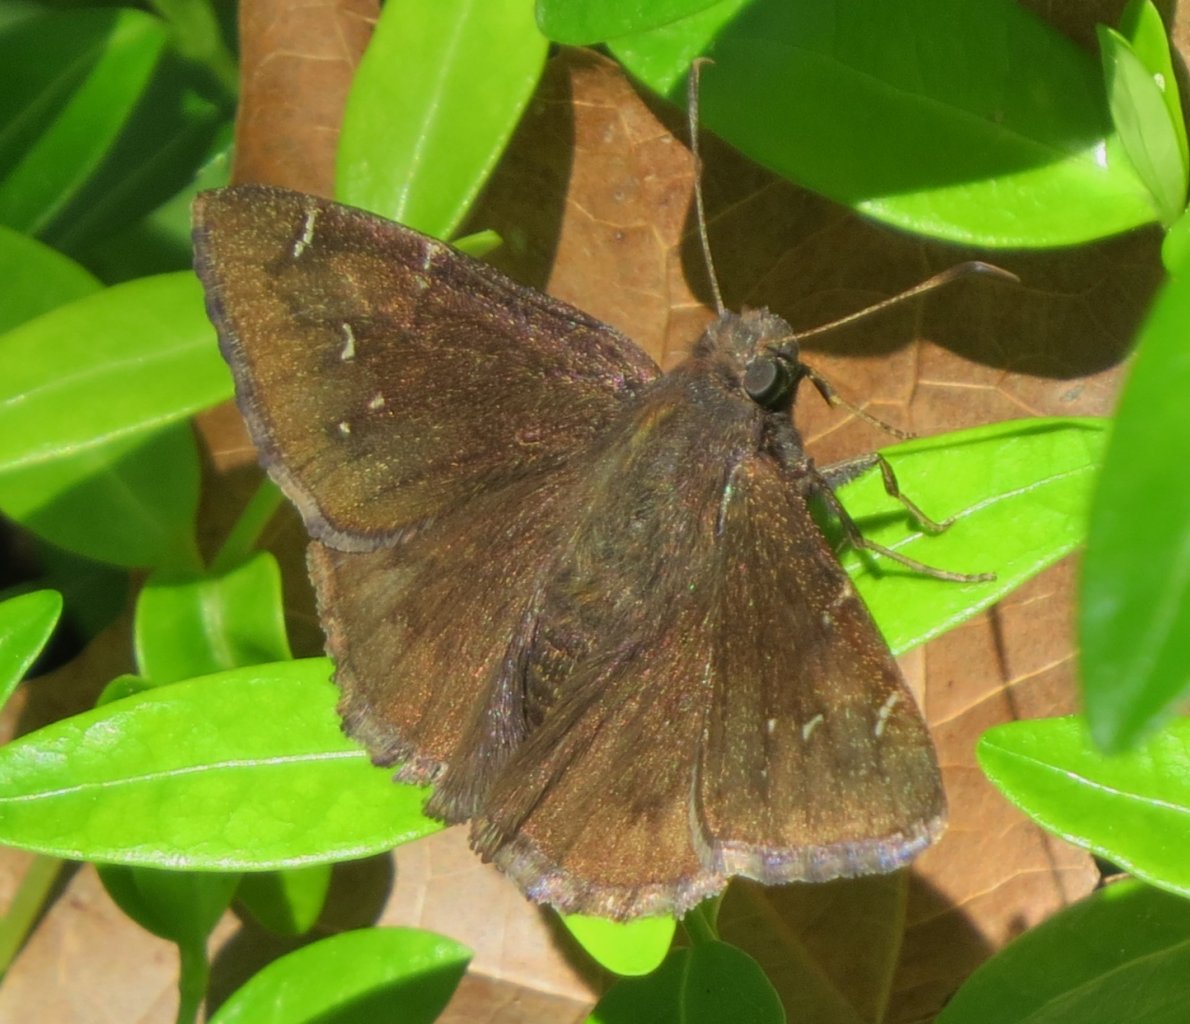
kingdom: Animalia
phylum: Arthropoda
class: Insecta
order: Lepidoptera
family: Hesperiidae
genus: Autochton
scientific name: Autochton
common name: Northern Cloudywing
